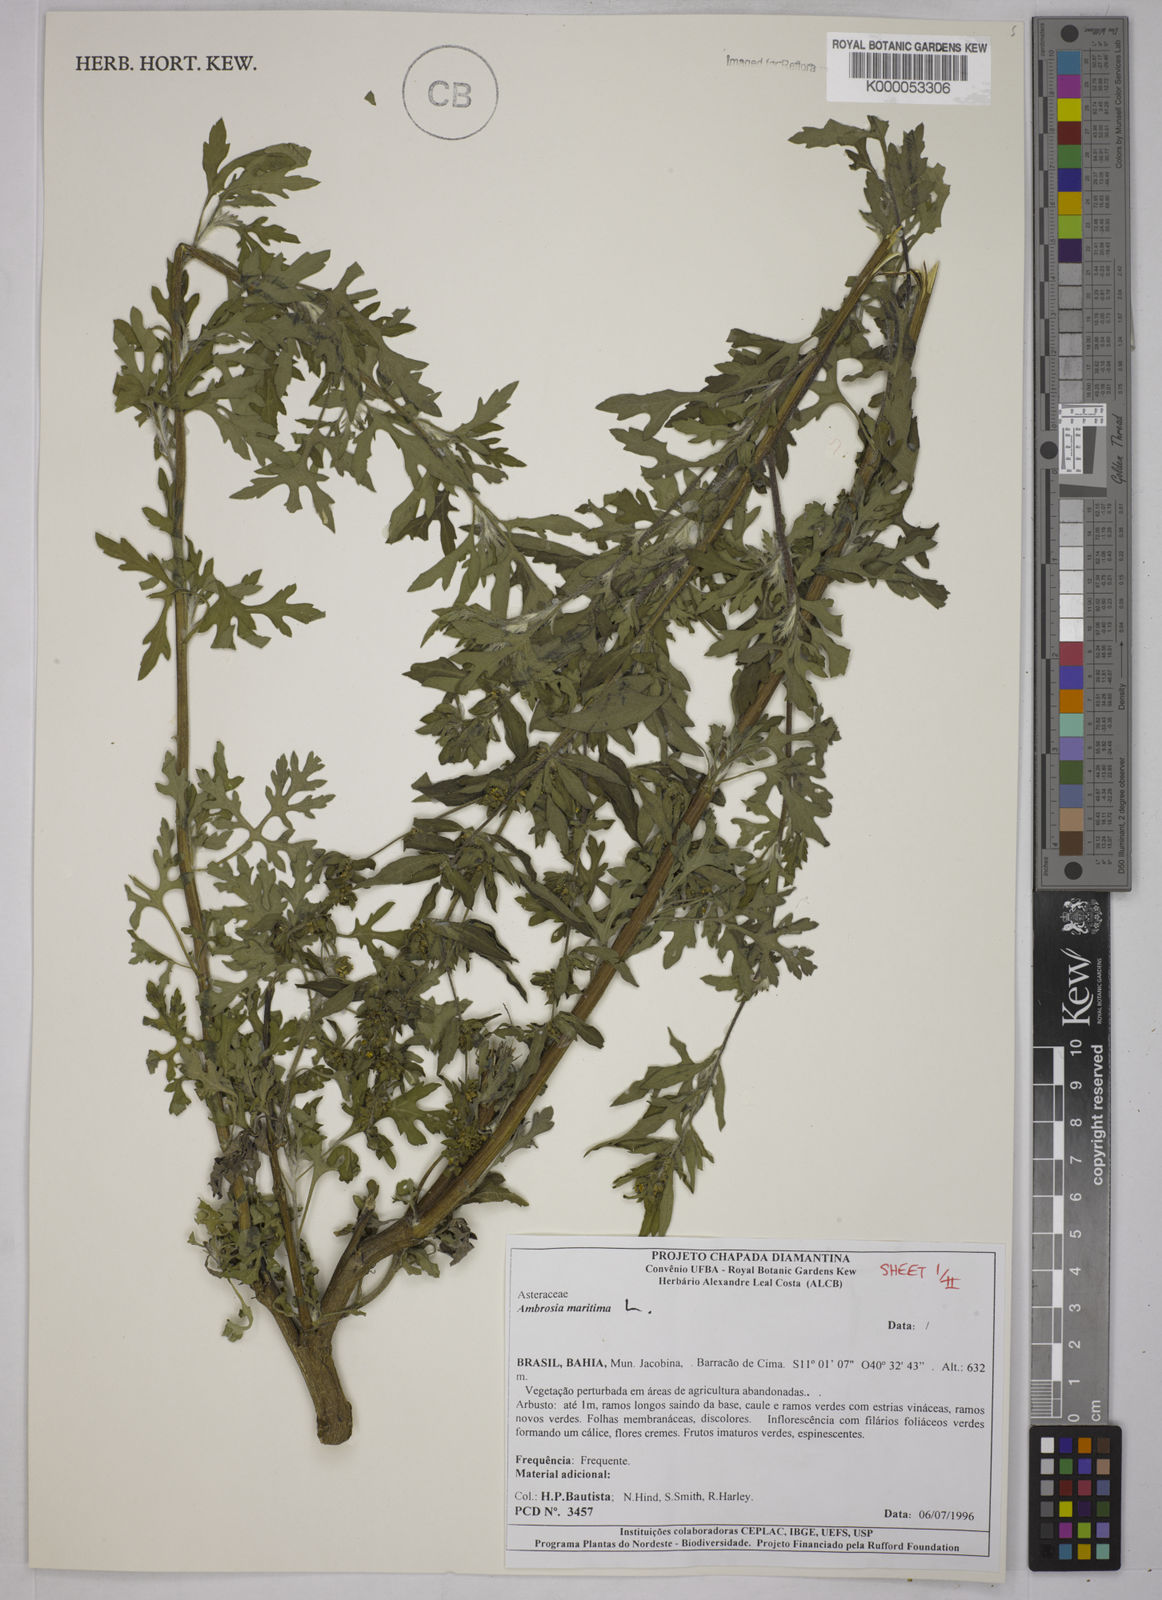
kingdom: Plantae
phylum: Tracheophyta
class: Magnoliopsida
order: Asterales
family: Asteraceae
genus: Ambrosia
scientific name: Ambrosia maritima
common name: Sea ambrosia
